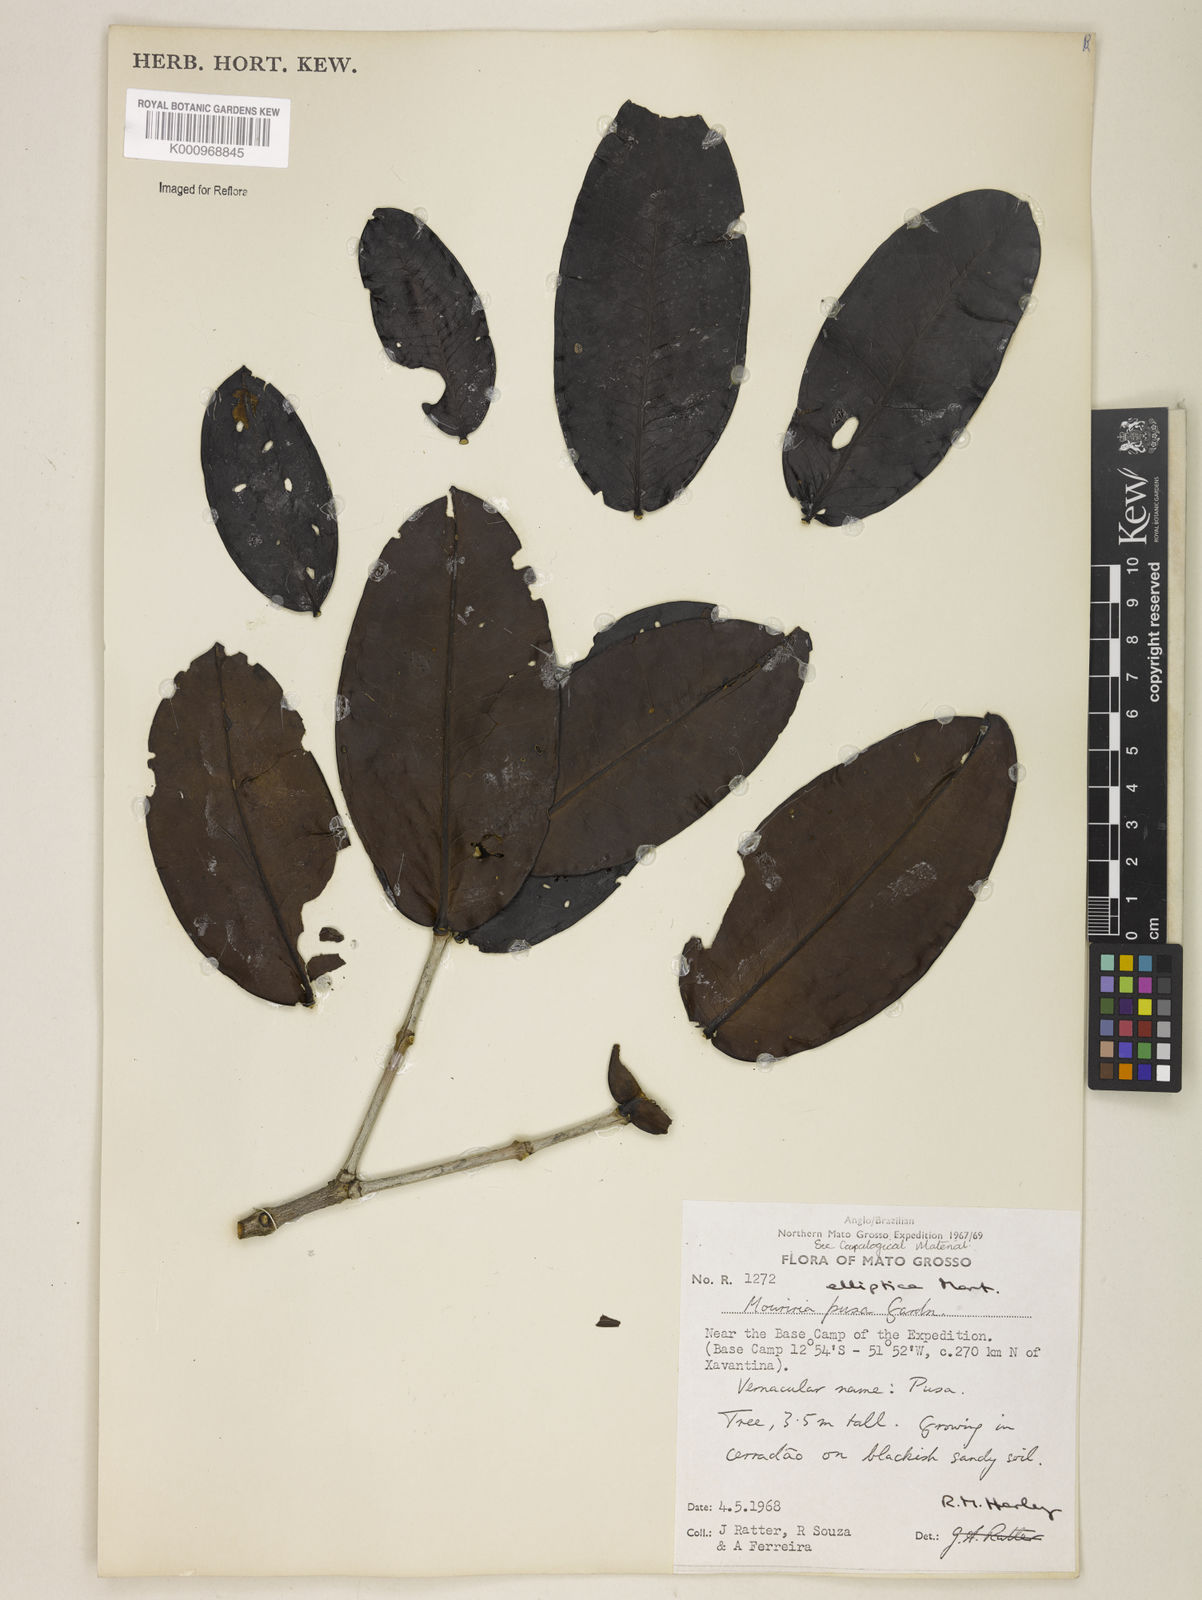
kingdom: Plantae
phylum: Tracheophyta
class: Magnoliopsida
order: Myrtales
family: Melastomataceae
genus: Mouriri
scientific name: Mouriri elliptica
